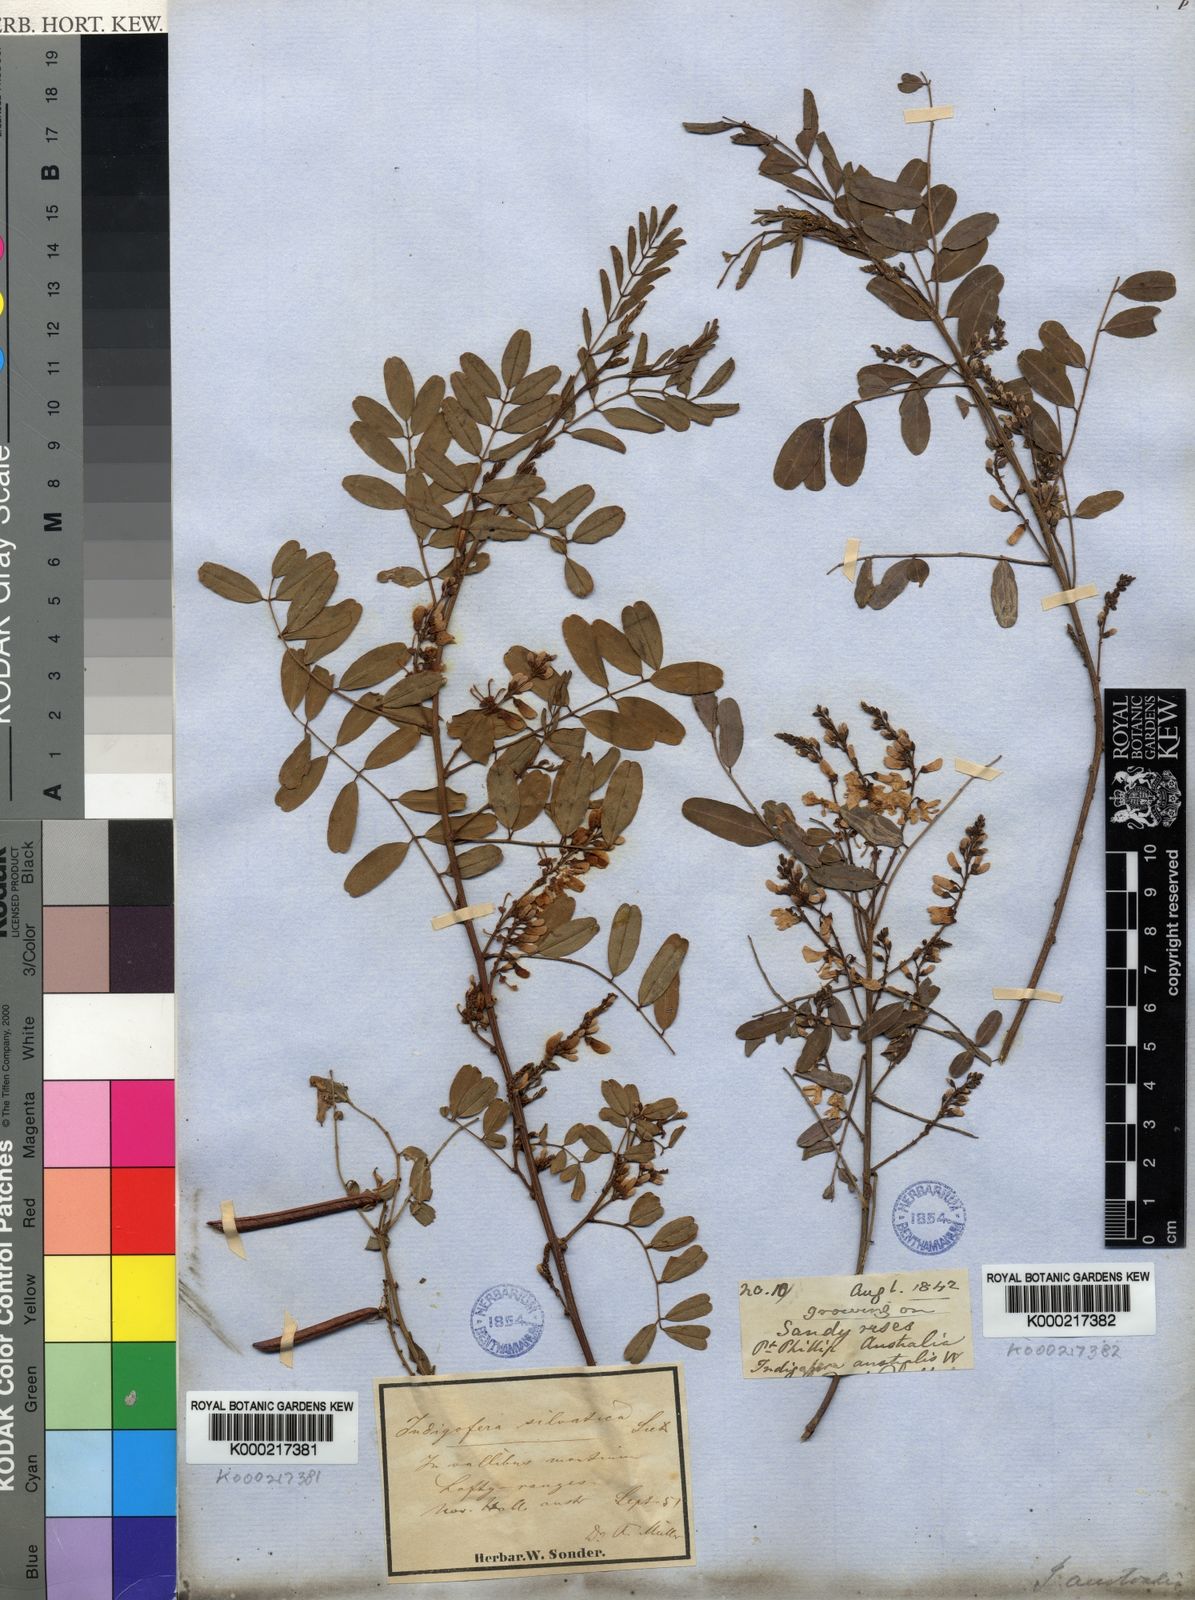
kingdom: Plantae
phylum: Tracheophyta
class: Magnoliopsida
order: Fabales
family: Fabaceae
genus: Indigofera
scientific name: Indigofera australis
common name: Australian indigo
